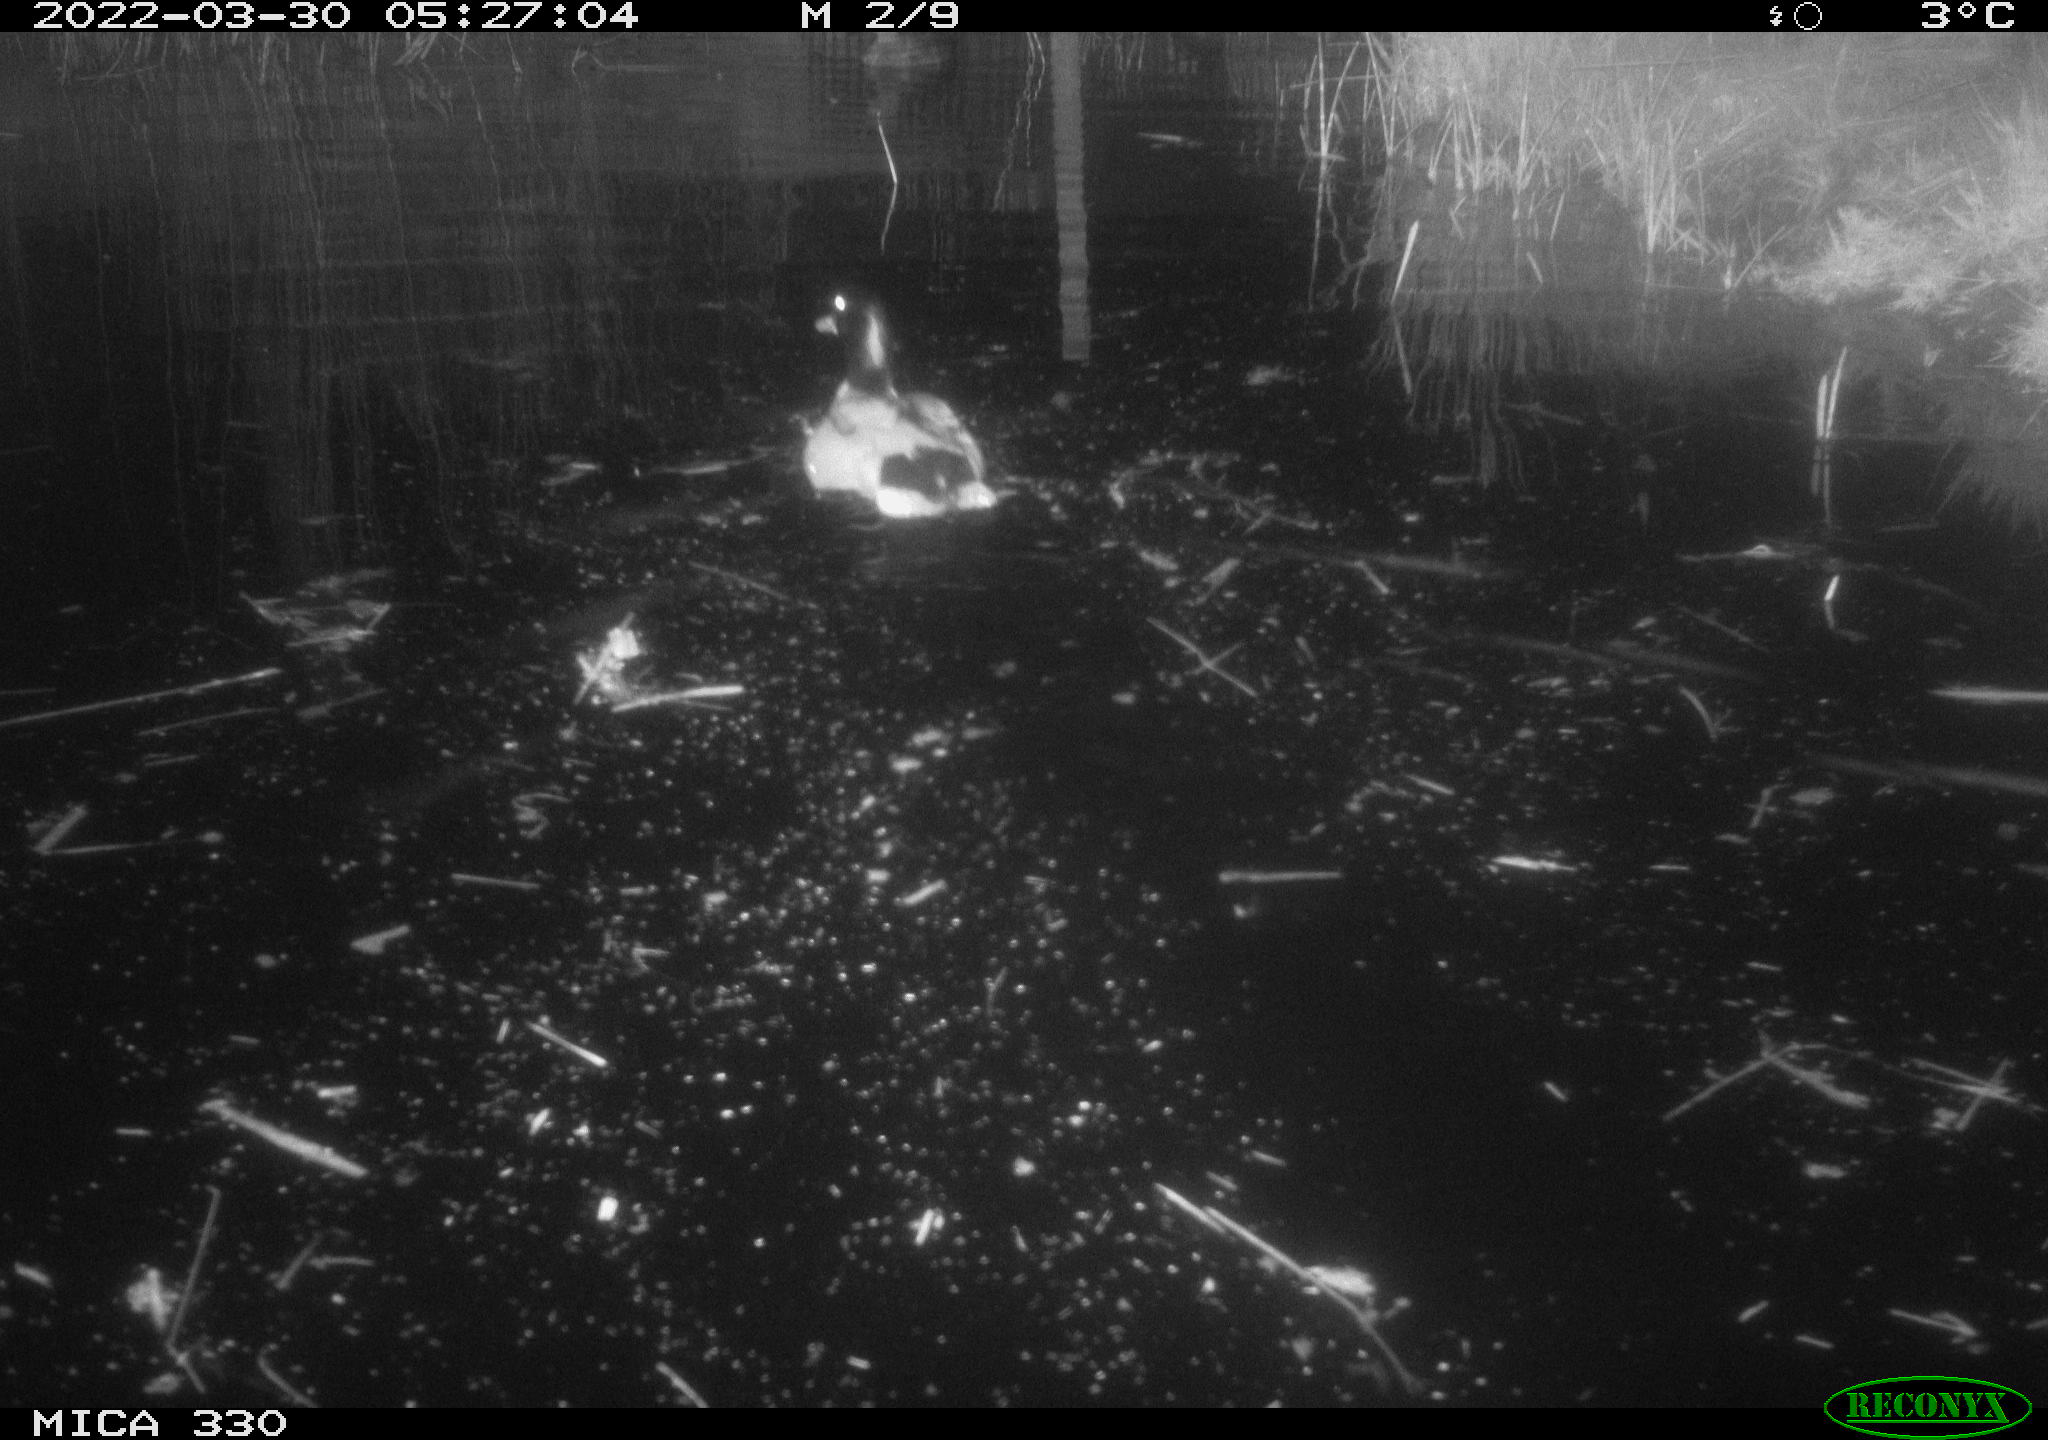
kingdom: Animalia
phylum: Chordata
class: Aves
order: Anseriformes
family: Anatidae
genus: Anas
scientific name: Anas platyrhynchos
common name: Mallard
